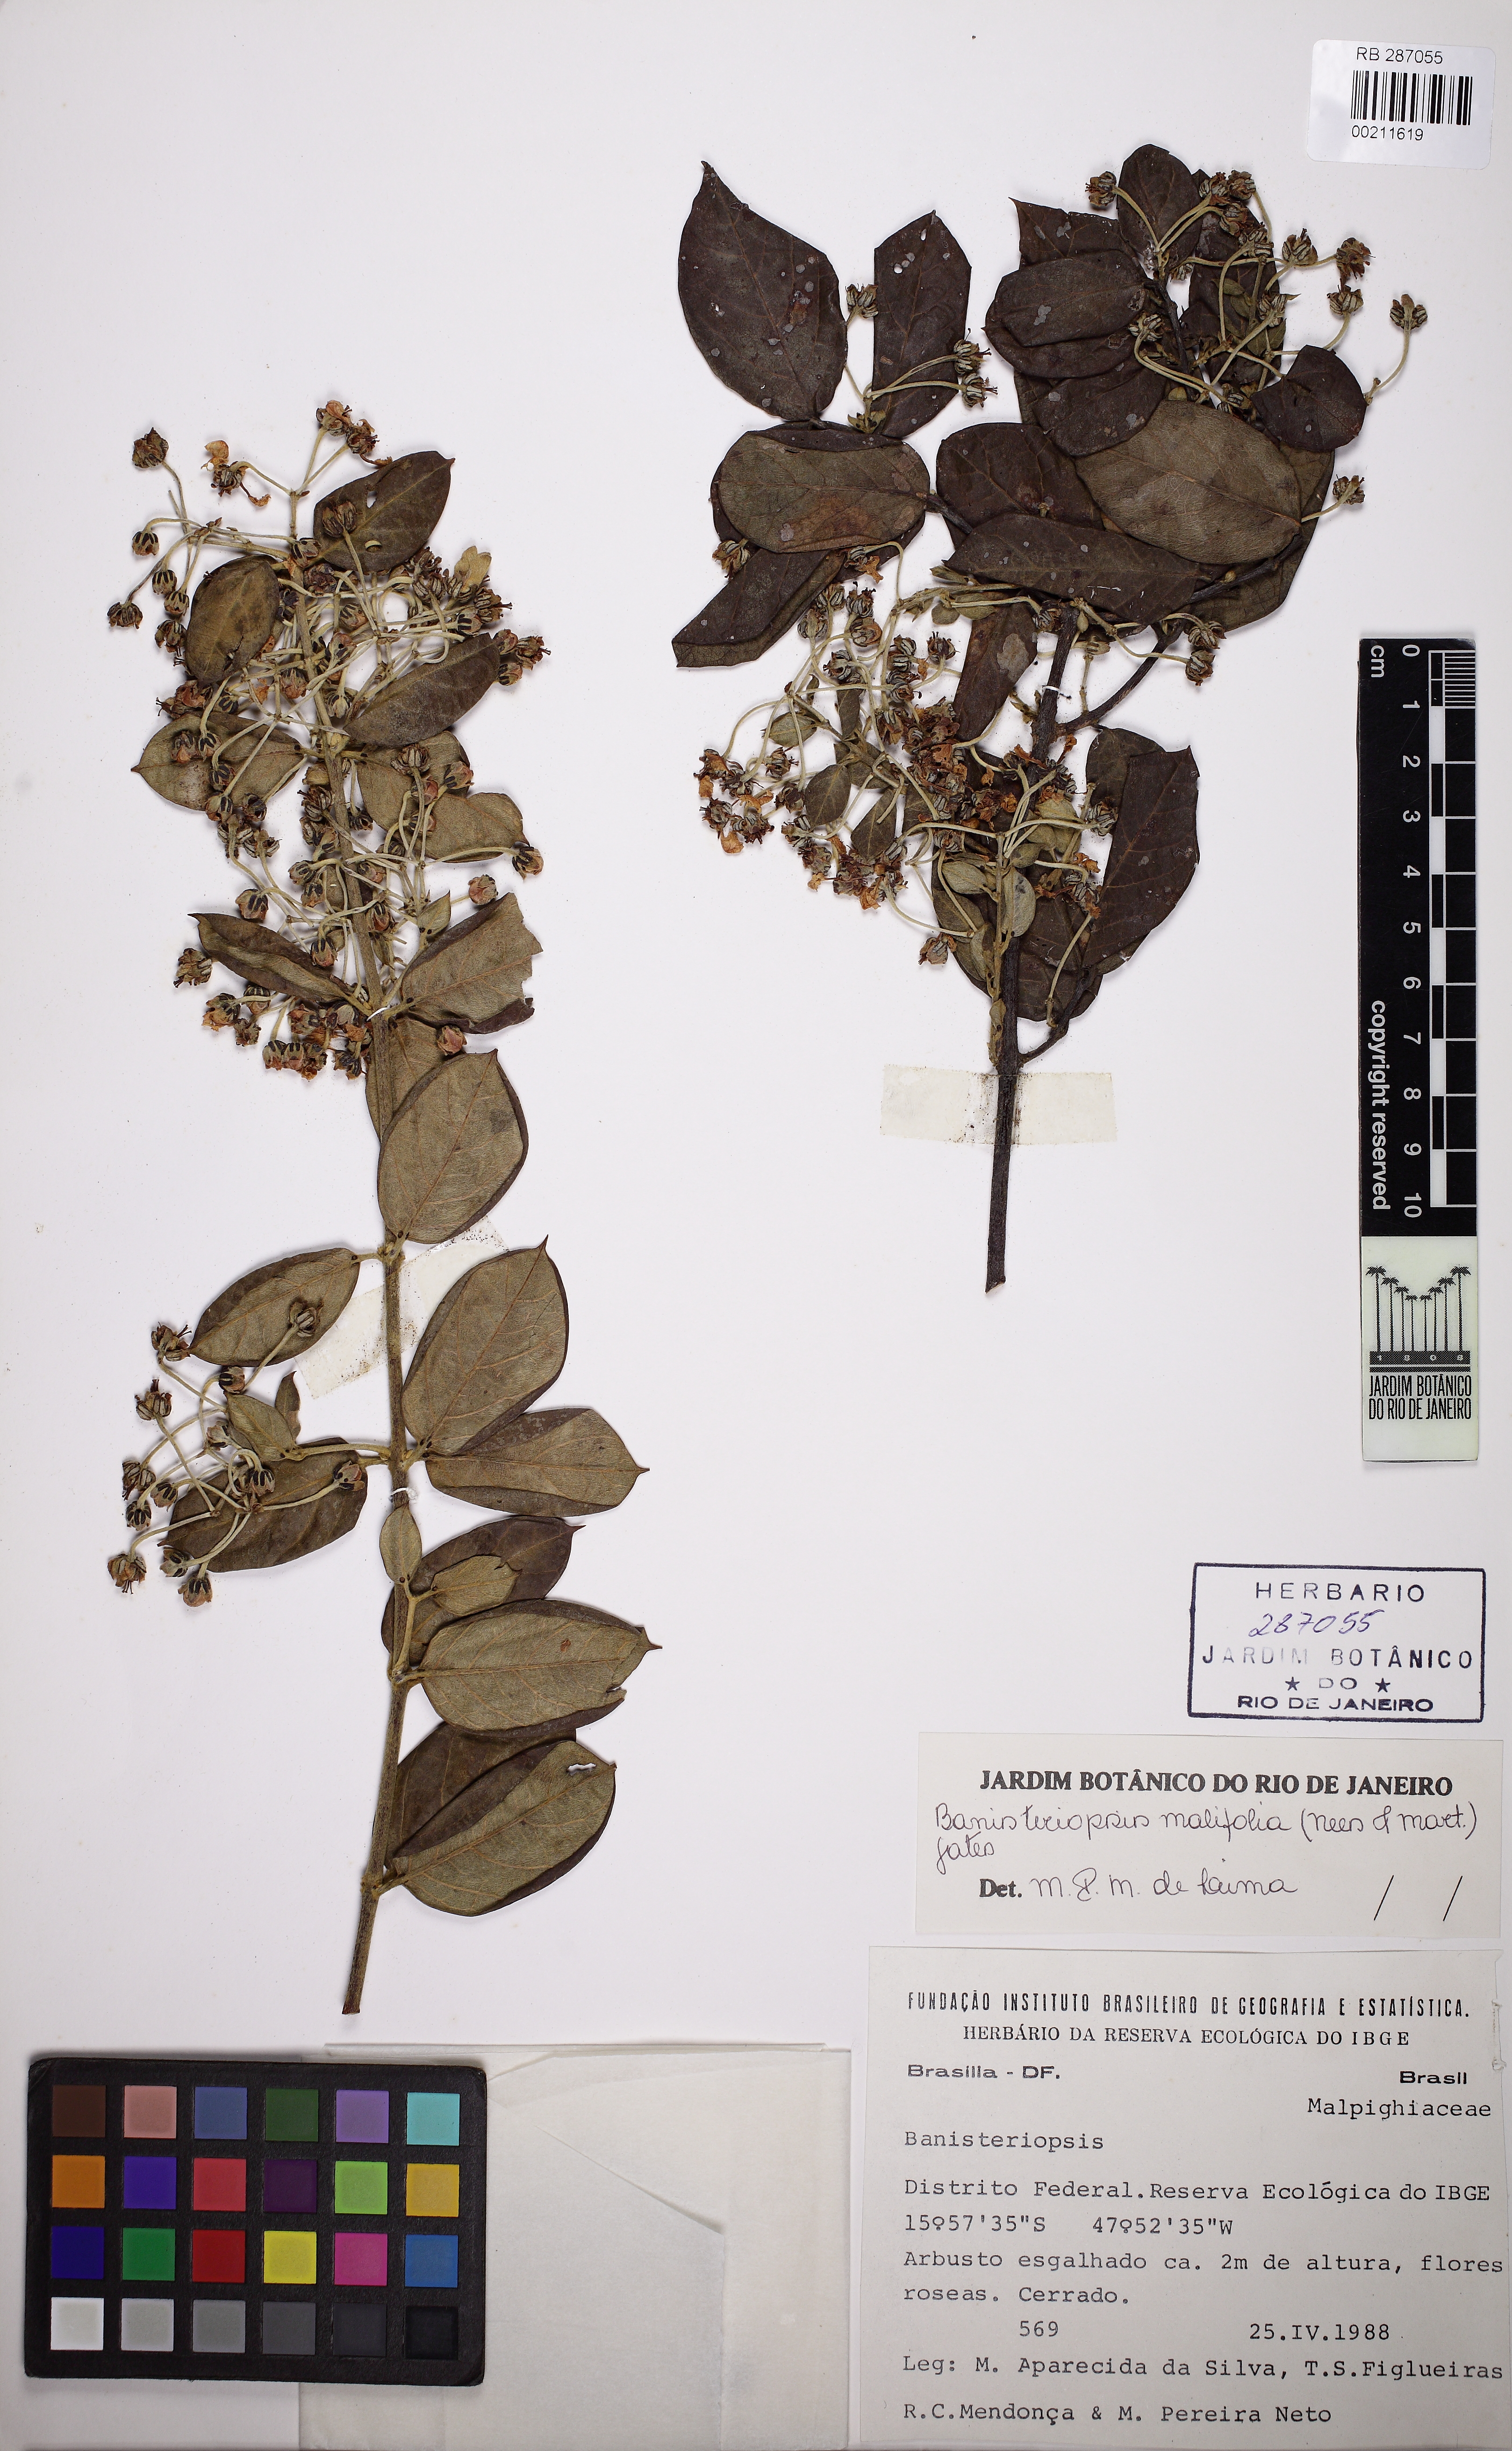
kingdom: Plantae
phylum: Tracheophyta
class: Magnoliopsida
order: Malpighiales
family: Malpighiaceae
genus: Banisteriopsis
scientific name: Banisteriopsis malifolia
